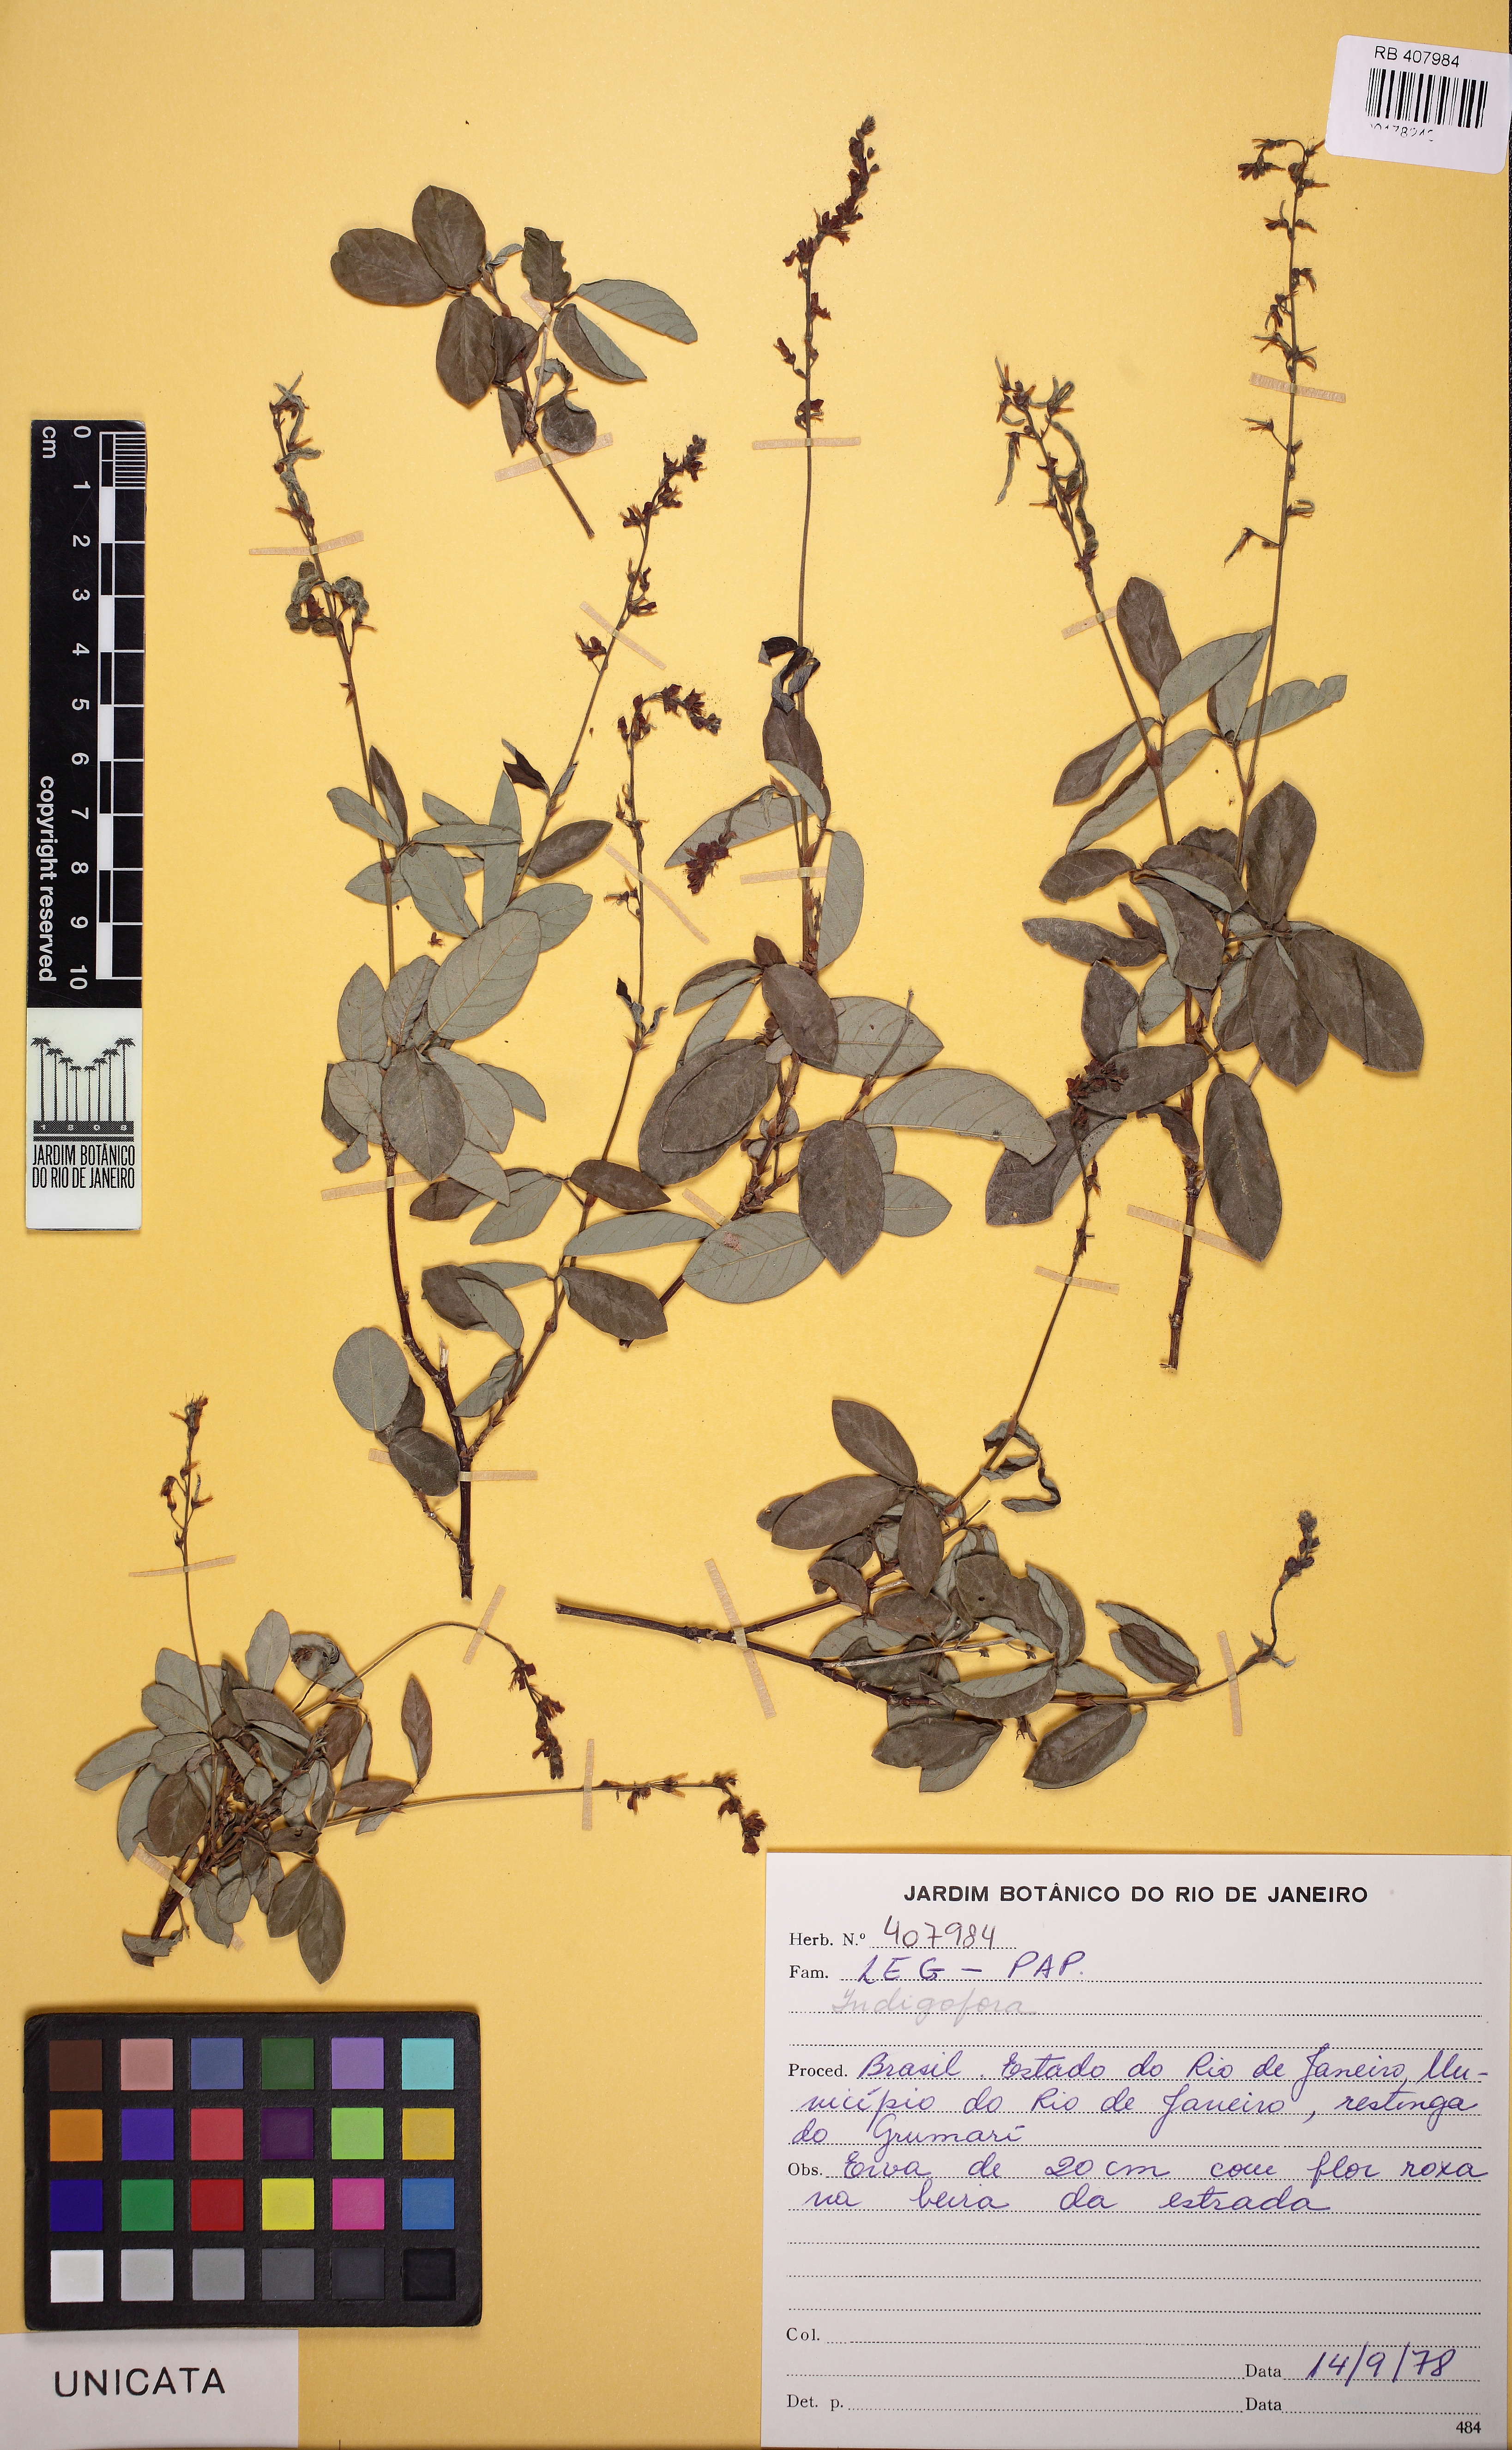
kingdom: Plantae
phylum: Tracheophyta
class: Magnoliopsida
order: Fabales
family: Fabaceae
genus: Indigofera
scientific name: Indigofera
